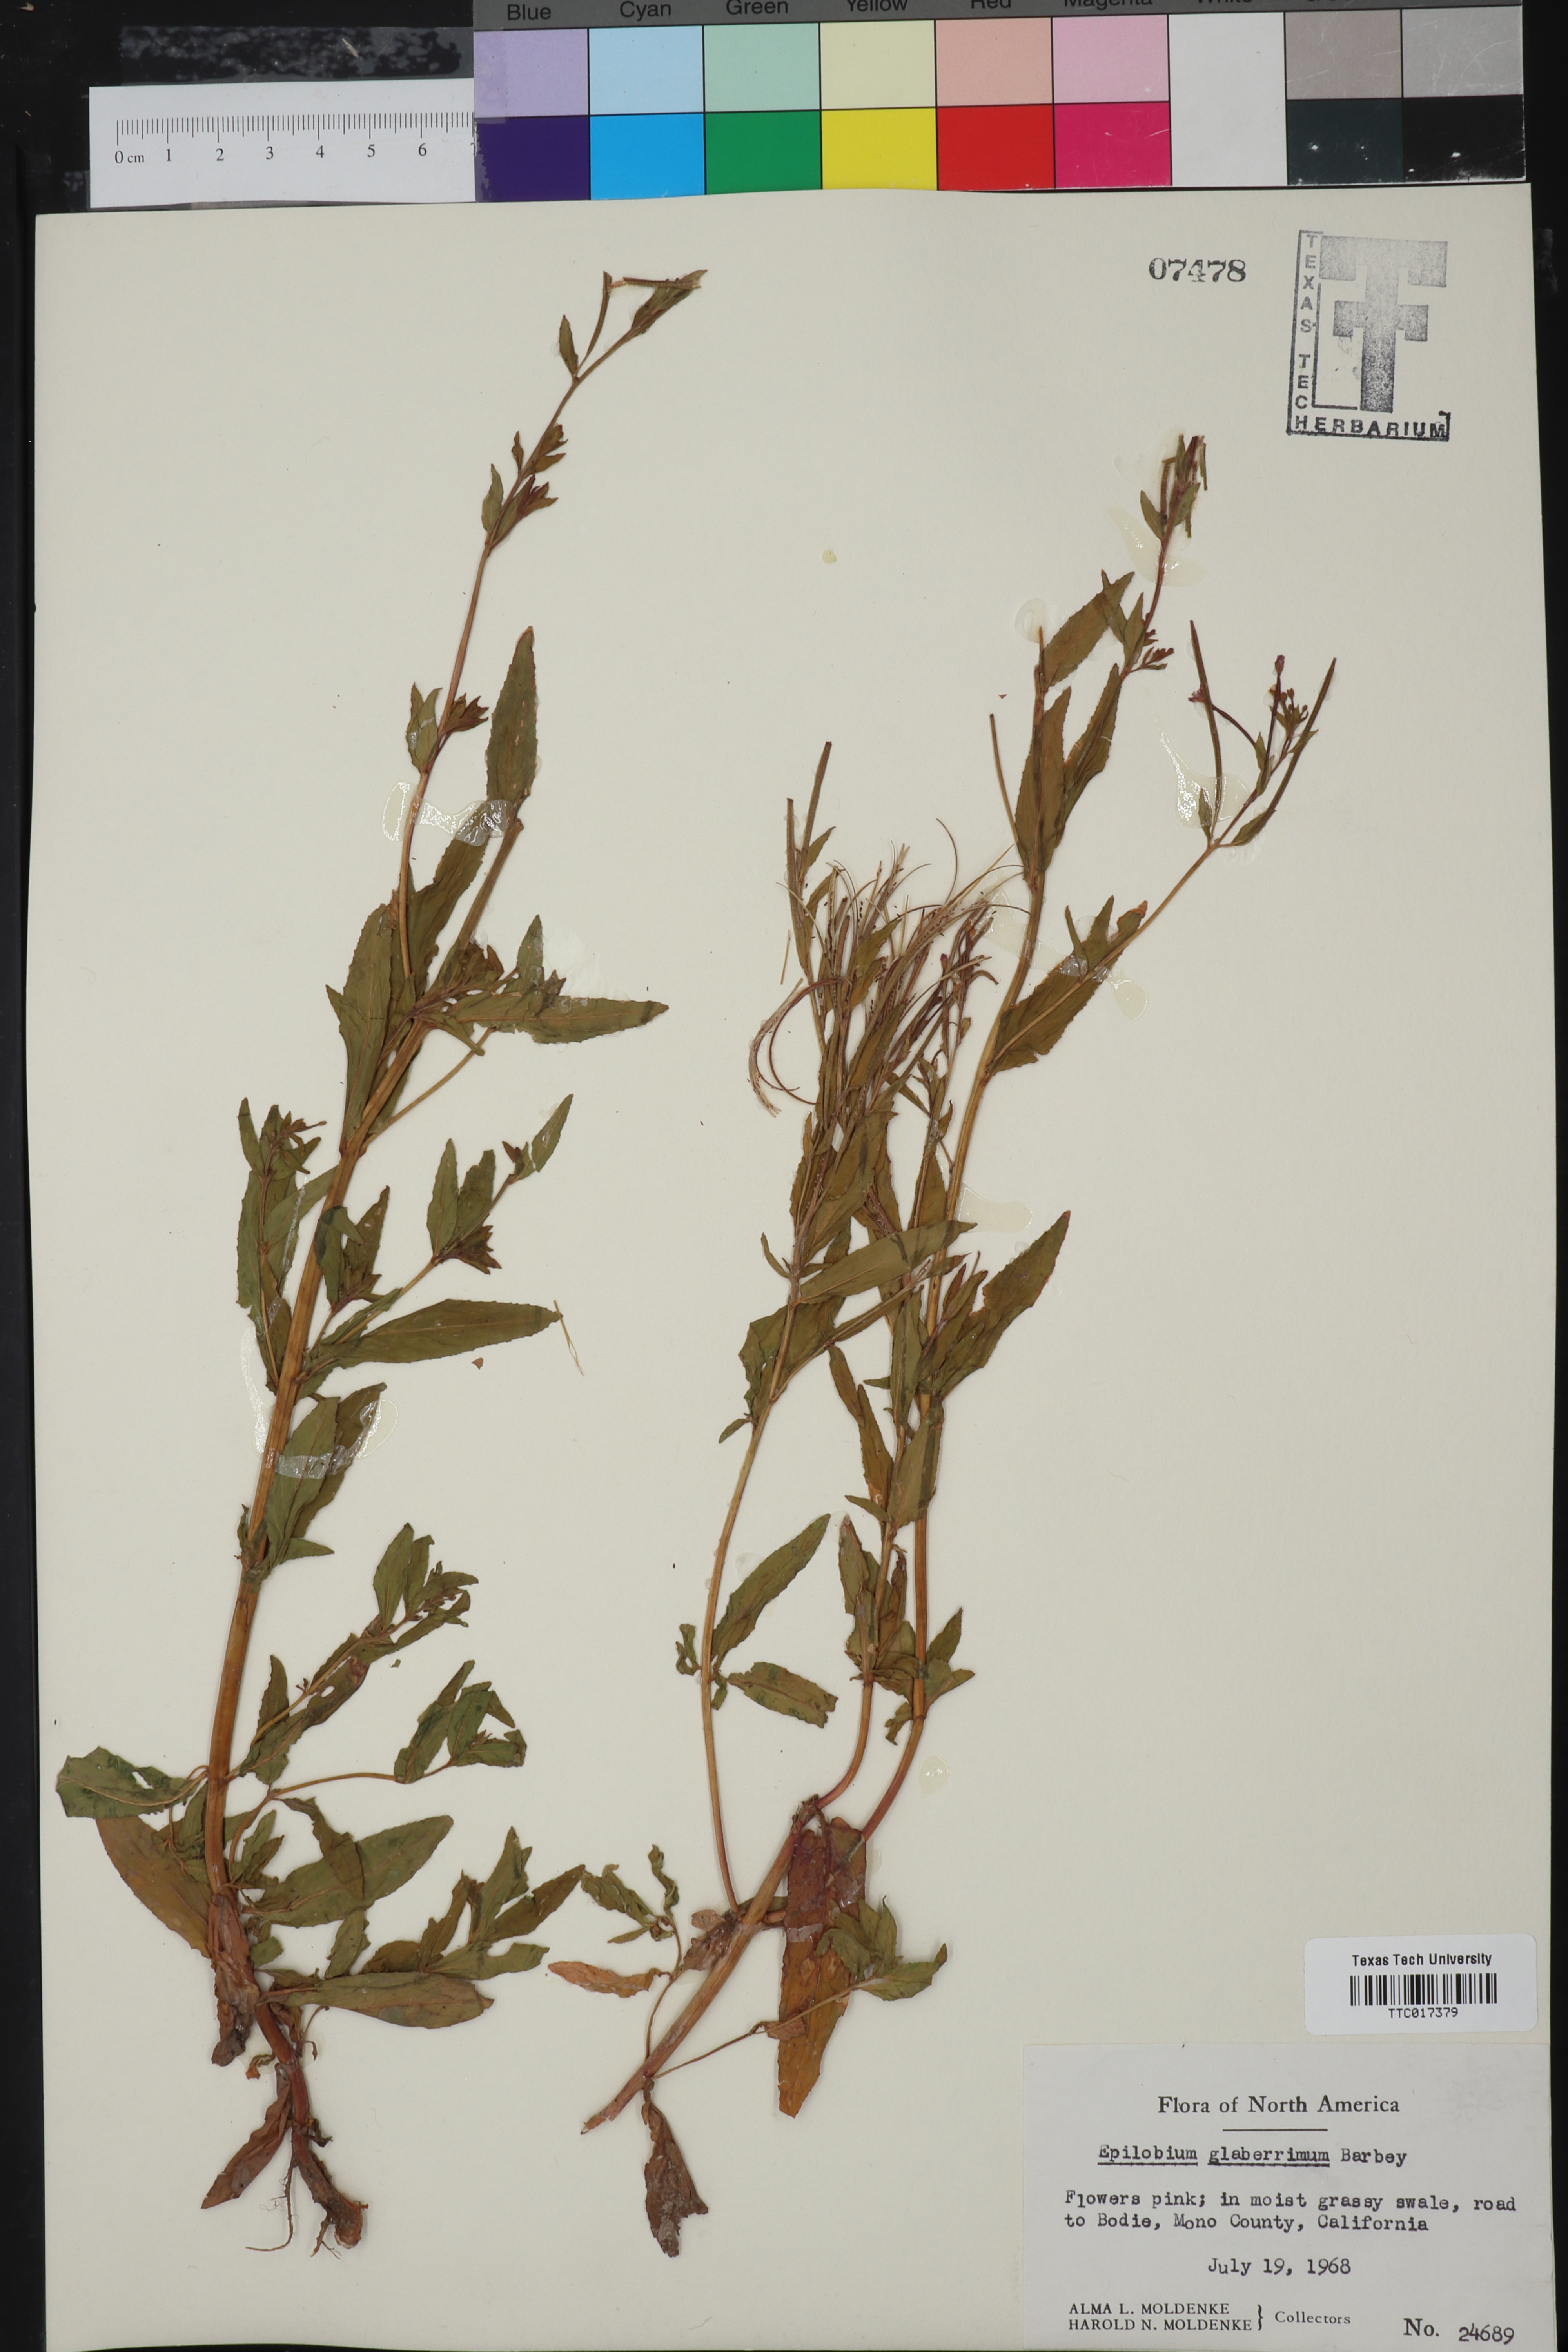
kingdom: Plantae
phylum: Tracheophyta
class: Magnoliopsida
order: Myrtales
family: Onagraceae
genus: Epilobium
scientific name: Epilobium glaberrimum
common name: Glaucous willowherb
